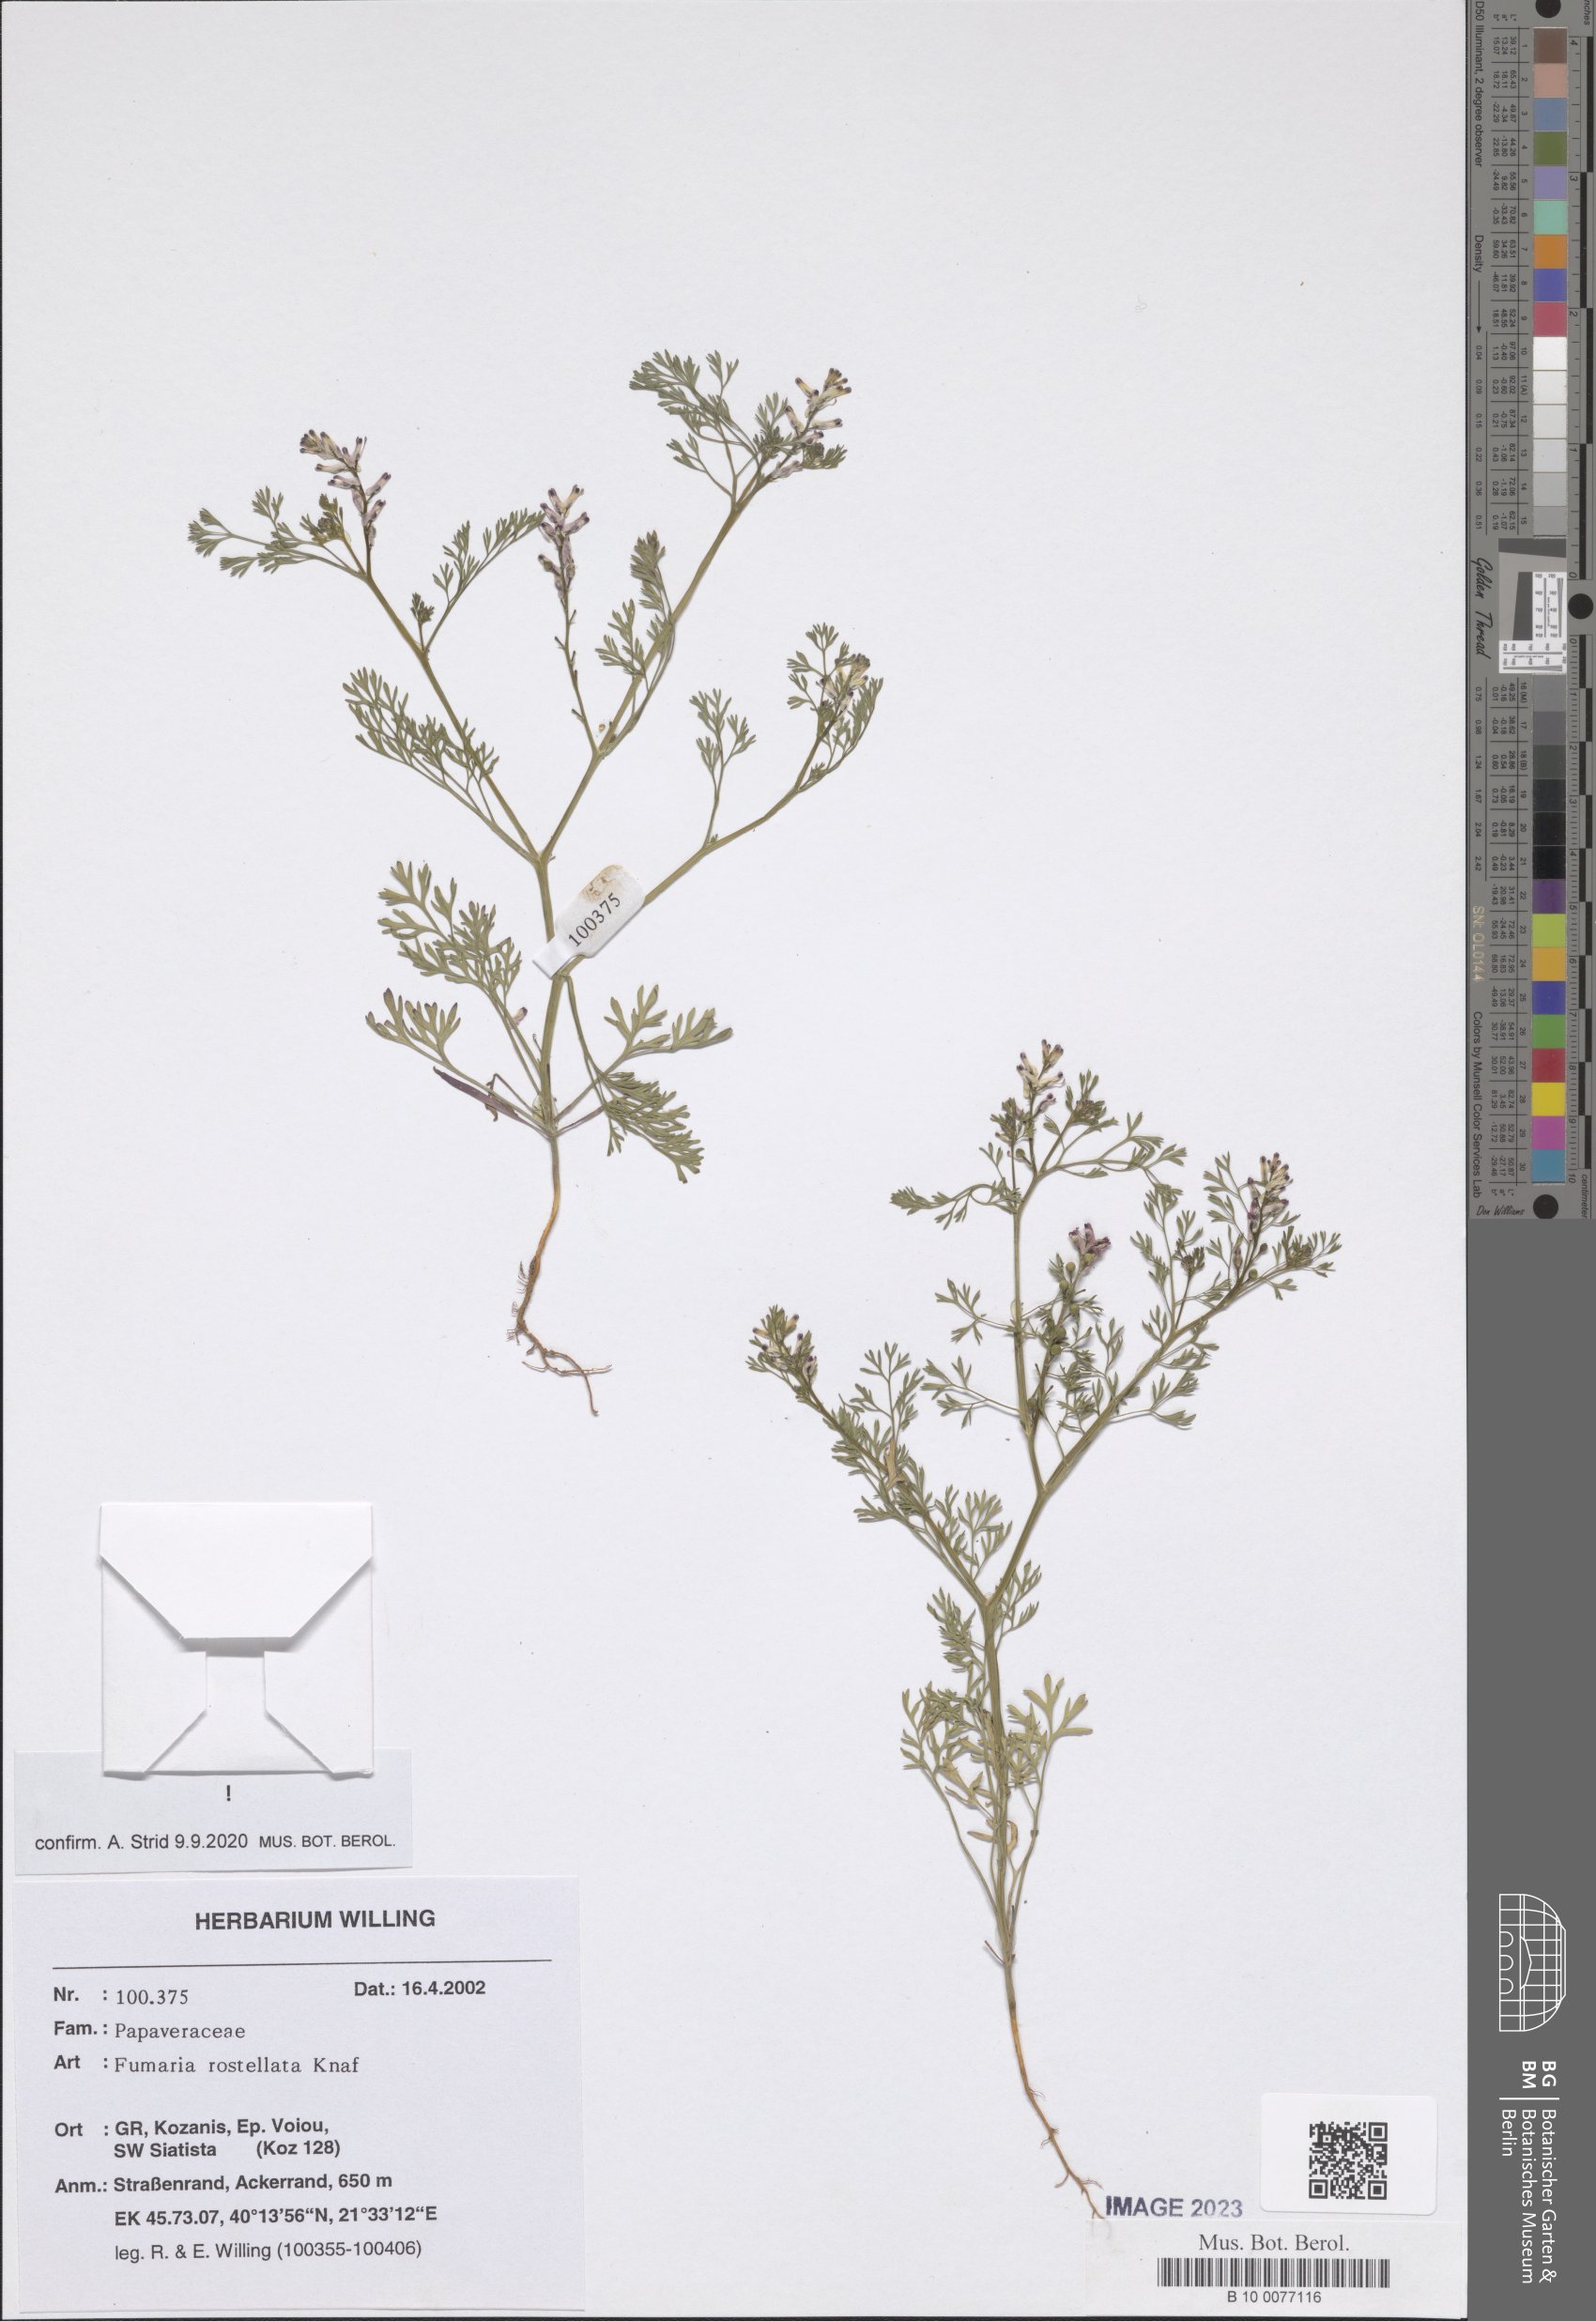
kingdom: Plantae
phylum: Tracheophyta
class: Magnoliopsida
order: Ranunculales
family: Papaveraceae
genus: Fumaria
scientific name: Fumaria rostellata
